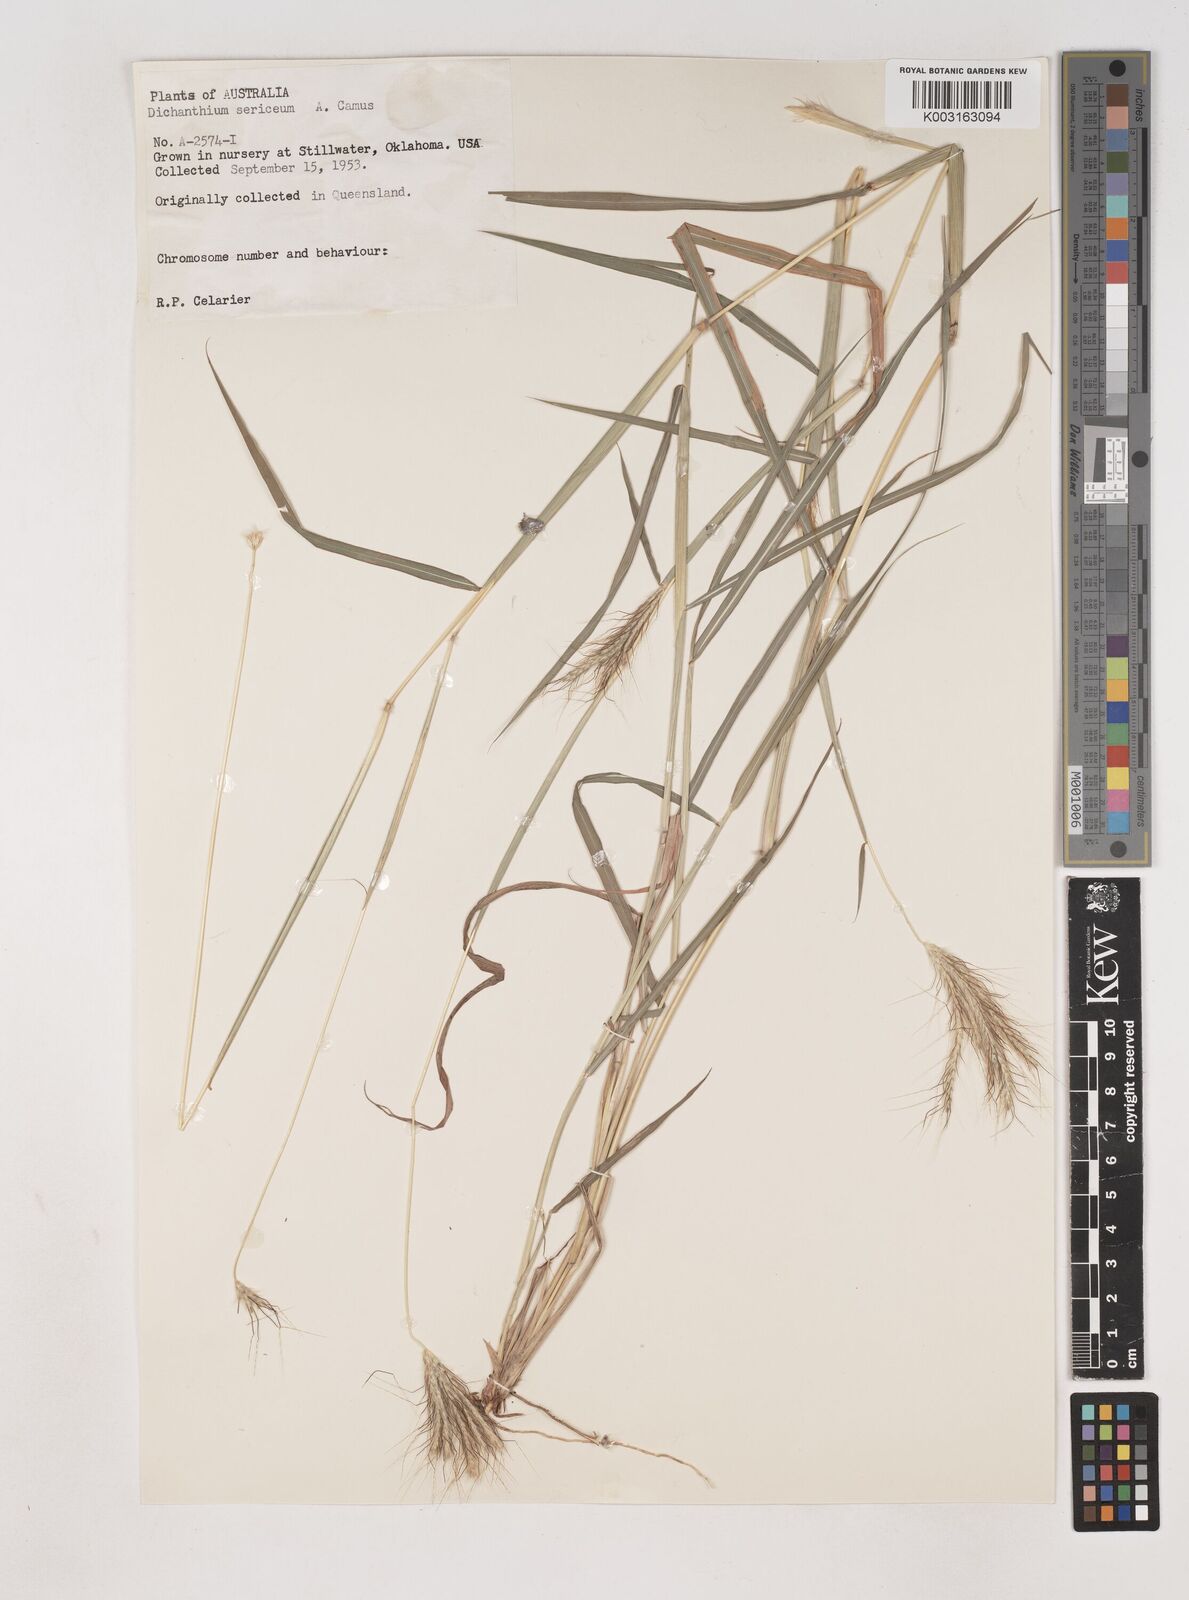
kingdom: Plantae
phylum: Tracheophyta
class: Liliopsida
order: Poales
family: Poaceae
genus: Dichanthium
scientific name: Dichanthium sericeum
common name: Silky bluestem
